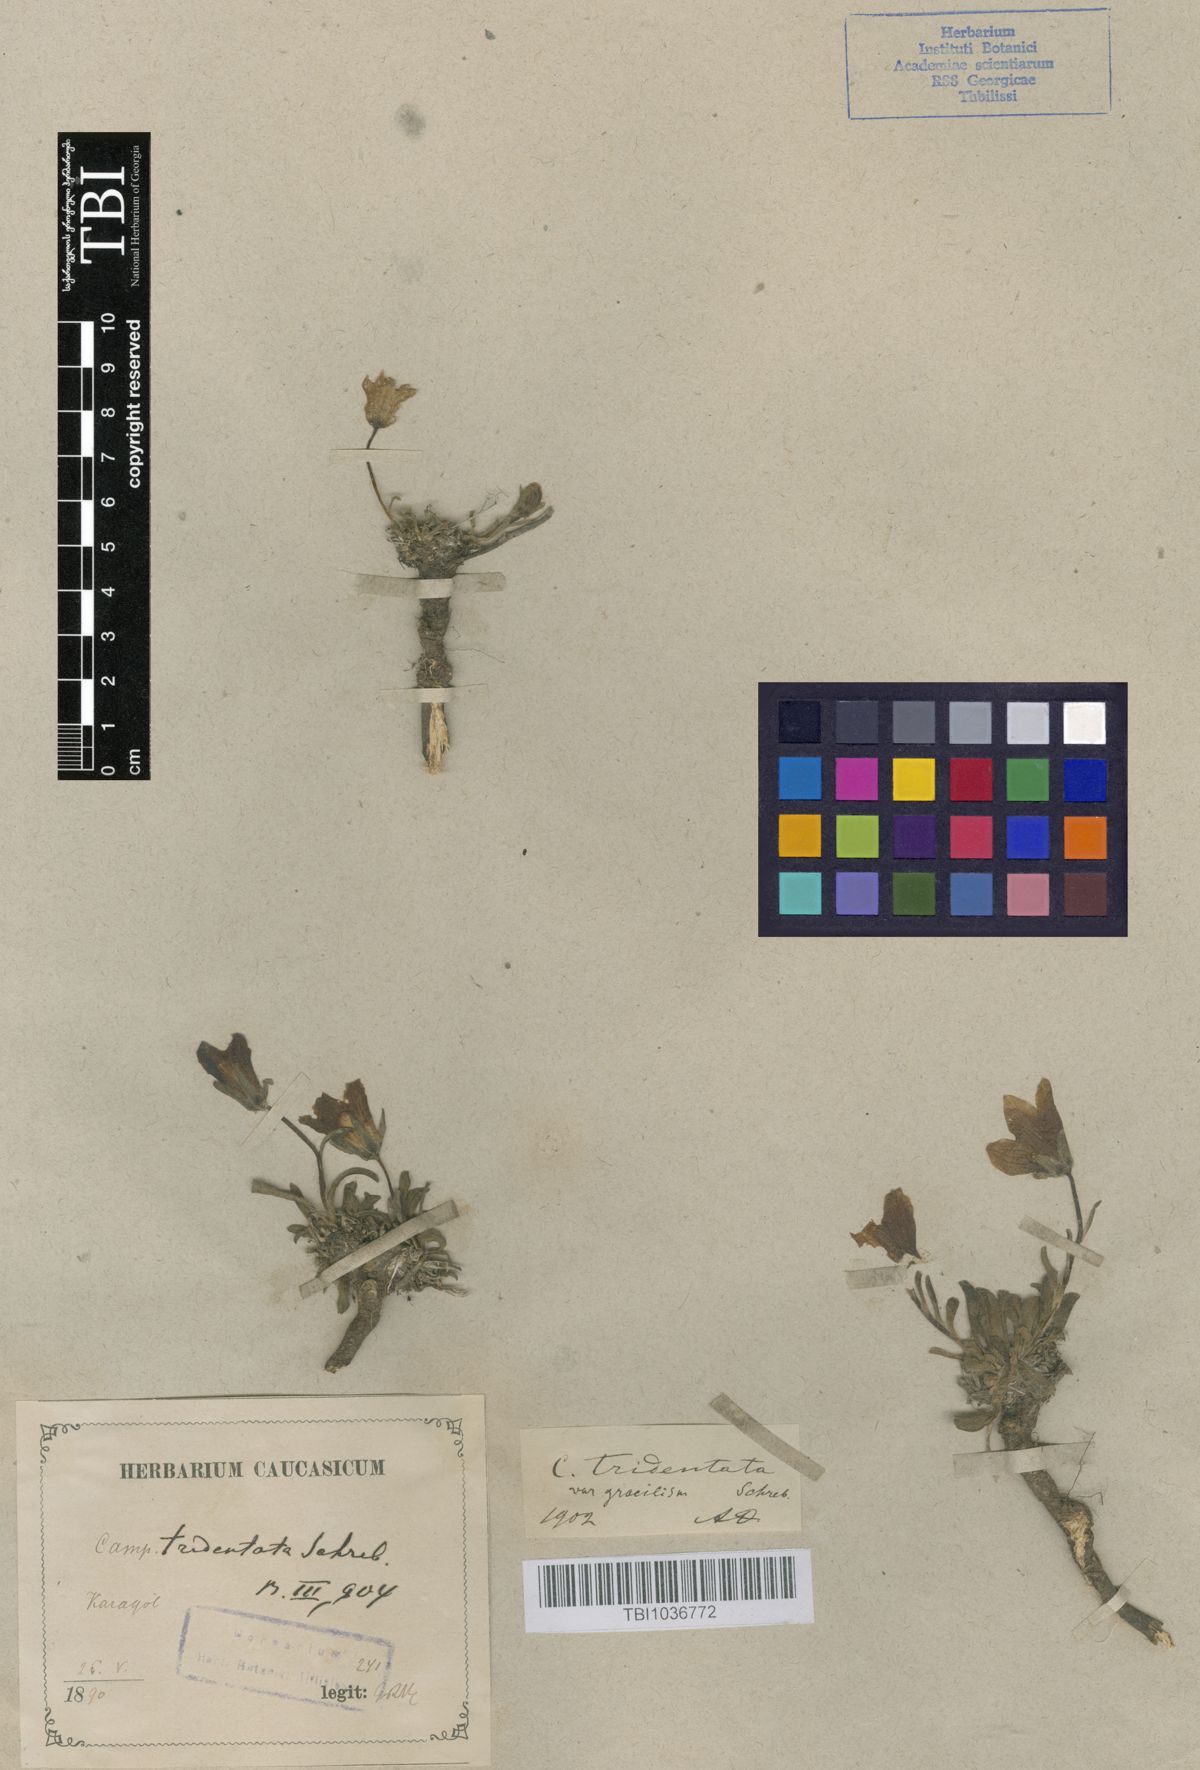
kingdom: Plantae
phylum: Tracheophyta
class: Magnoliopsida
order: Asterales
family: Campanulaceae
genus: Campanula
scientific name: Campanula tridentata
